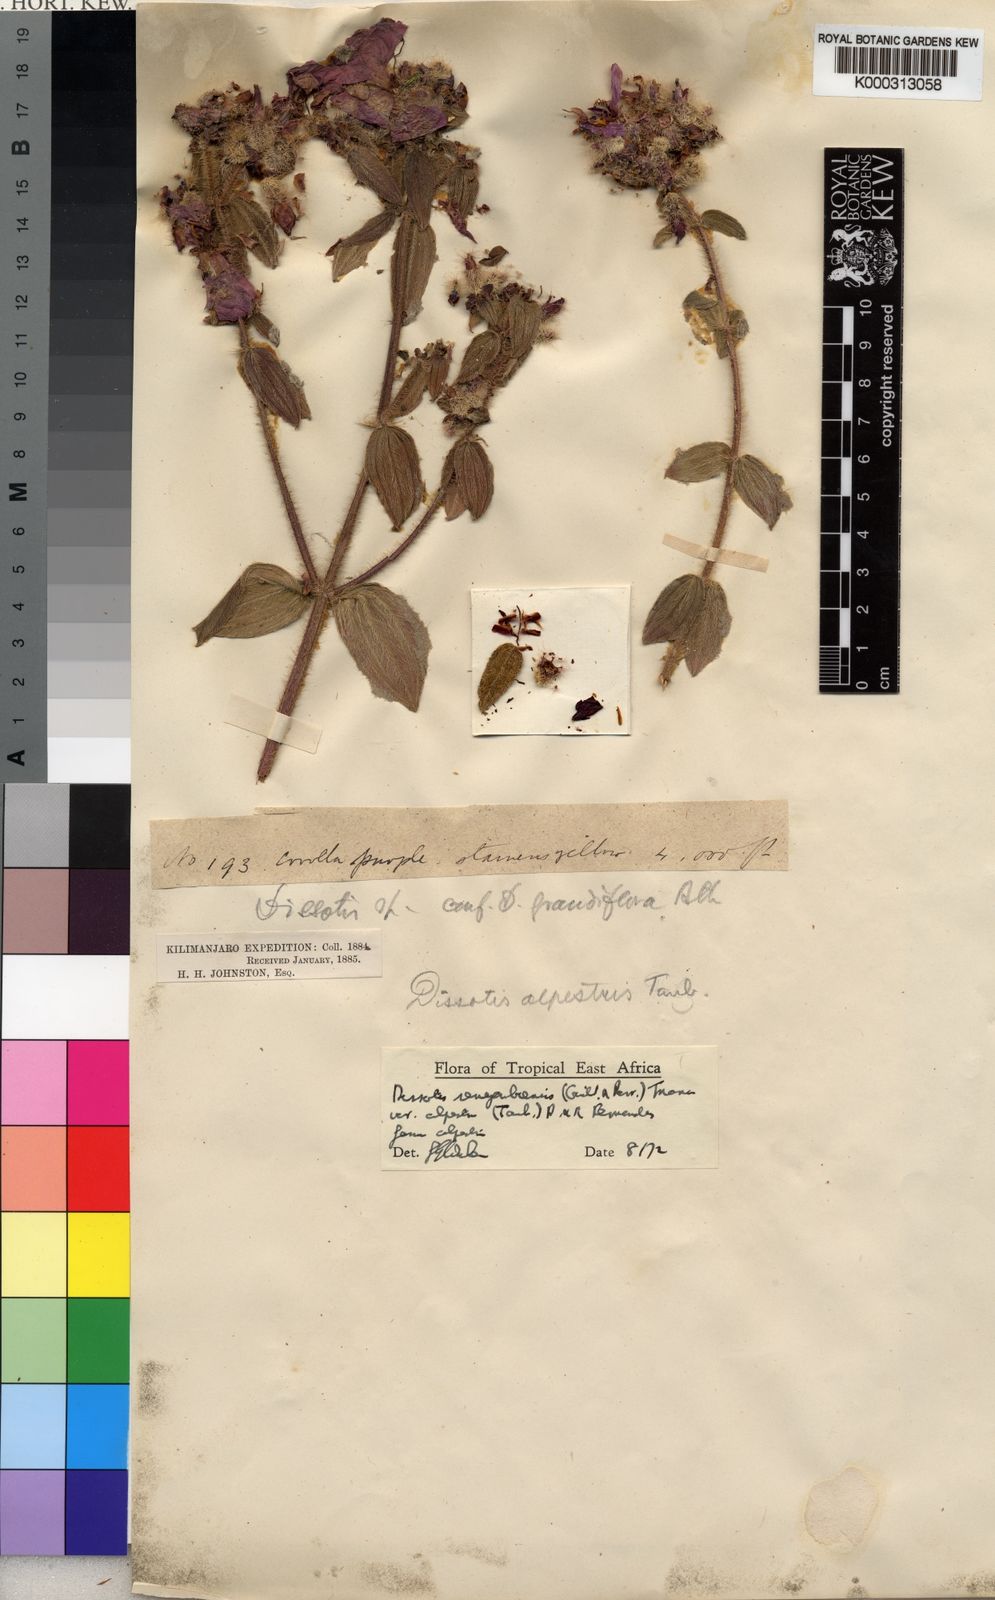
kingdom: Plantae
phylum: Tracheophyta
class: Magnoliopsida
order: Myrtales
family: Melastomataceae
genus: Antherotoma
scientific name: Antherotoma
